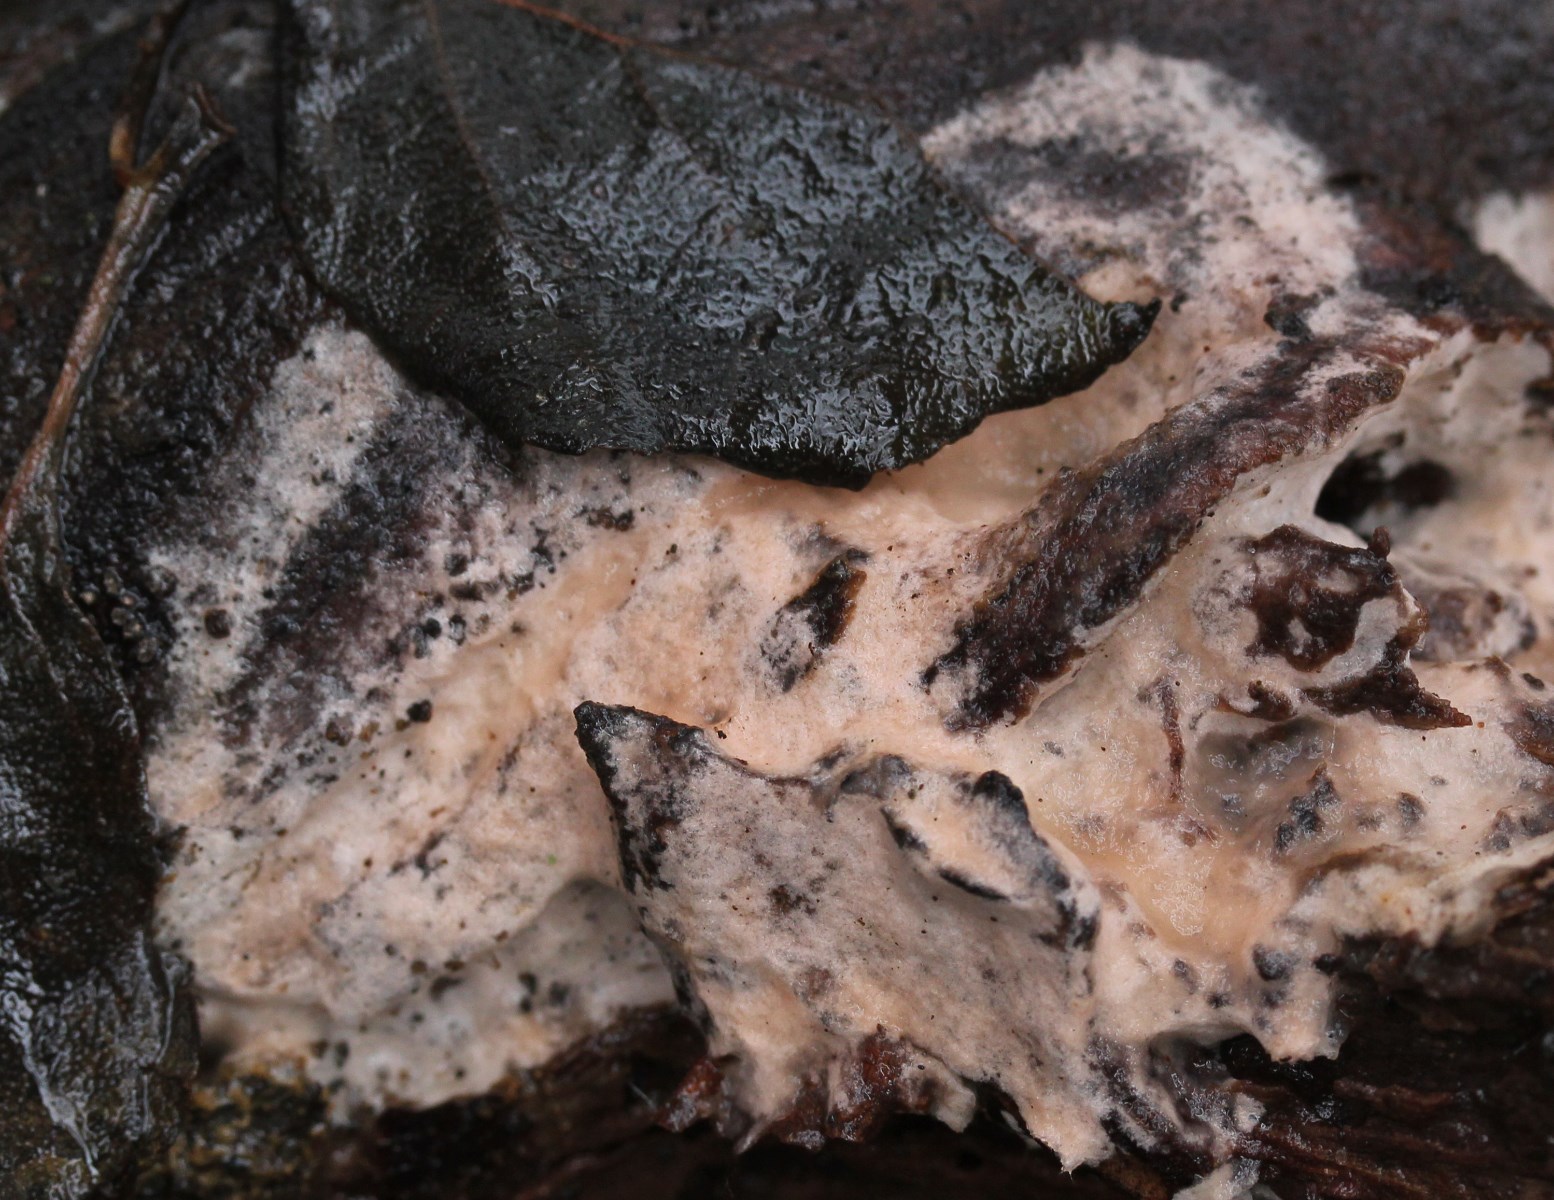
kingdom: Fungi
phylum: Basidiomycota
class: Agaricomycetes
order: Corticiales
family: Corticiaceae
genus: Erythricium
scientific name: Erythricium laetum
